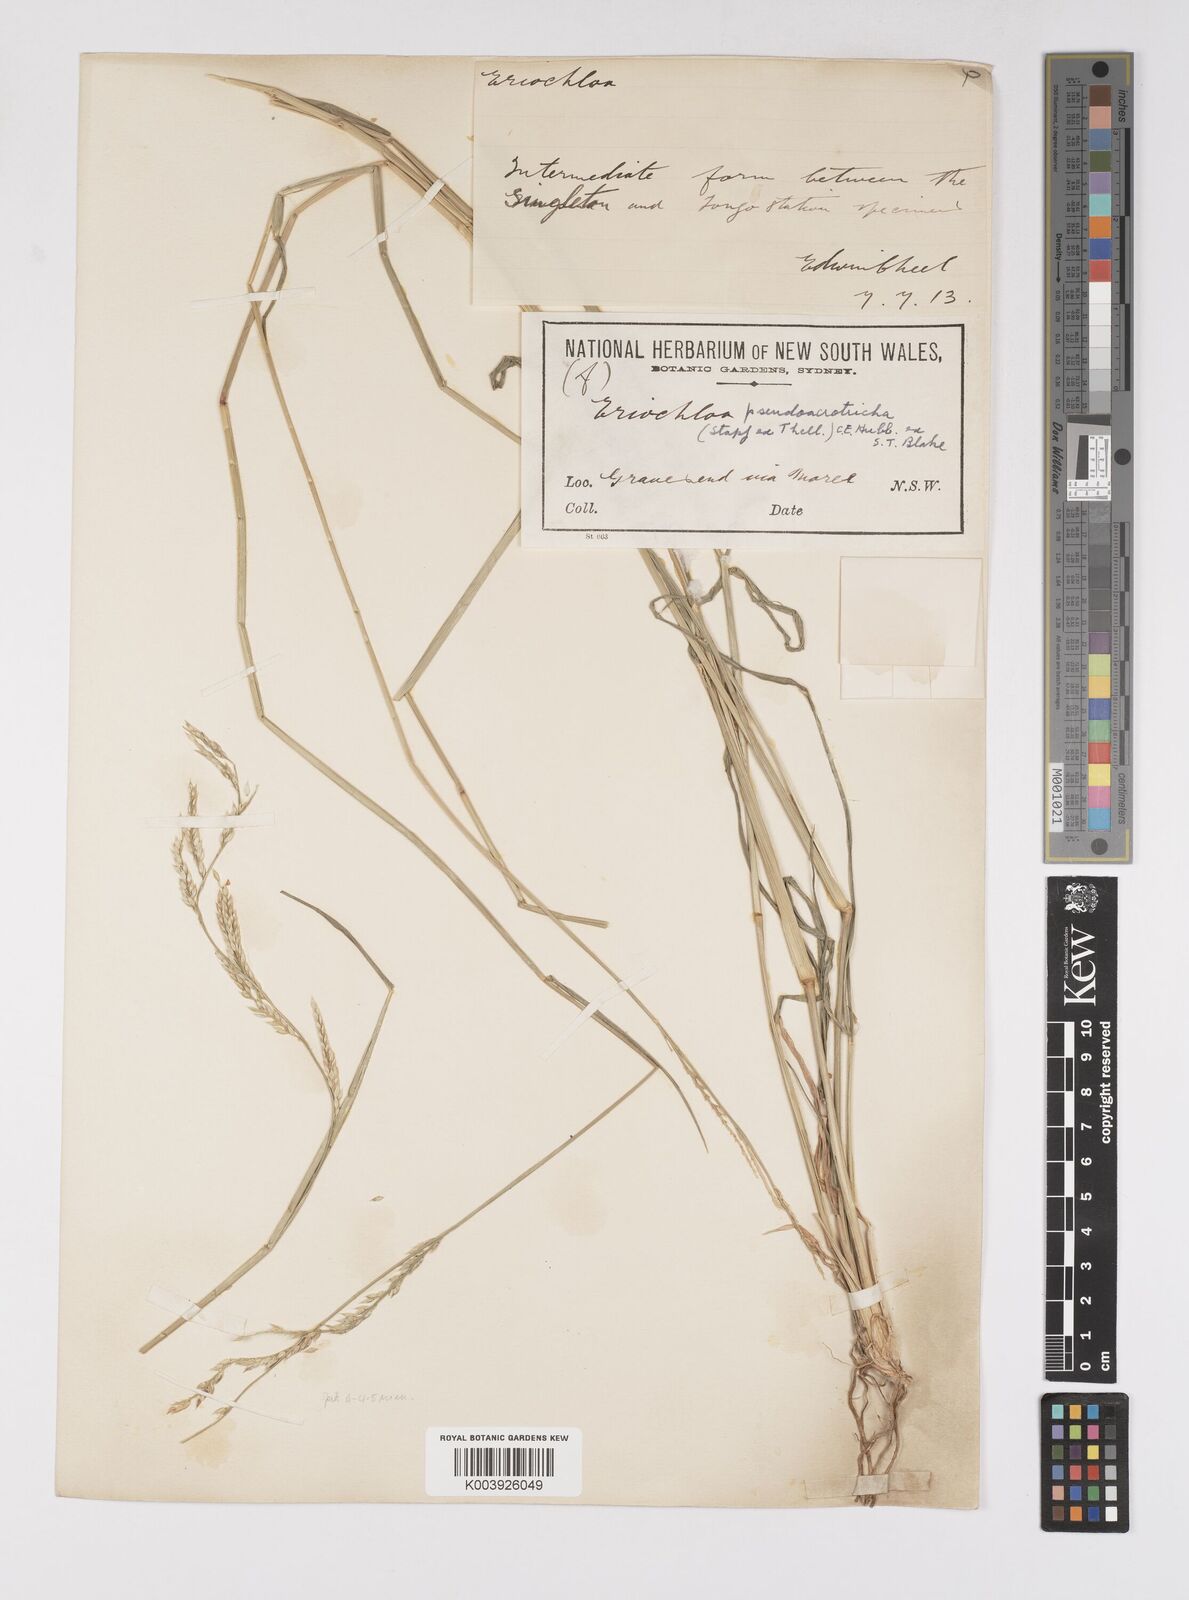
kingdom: Plantae
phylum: Tracheophyta
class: Liliopsida
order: Poales
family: Poaceae
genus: Eriochloa
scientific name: Eriochloa pseudoacrotricha
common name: Perennial cup-grass
